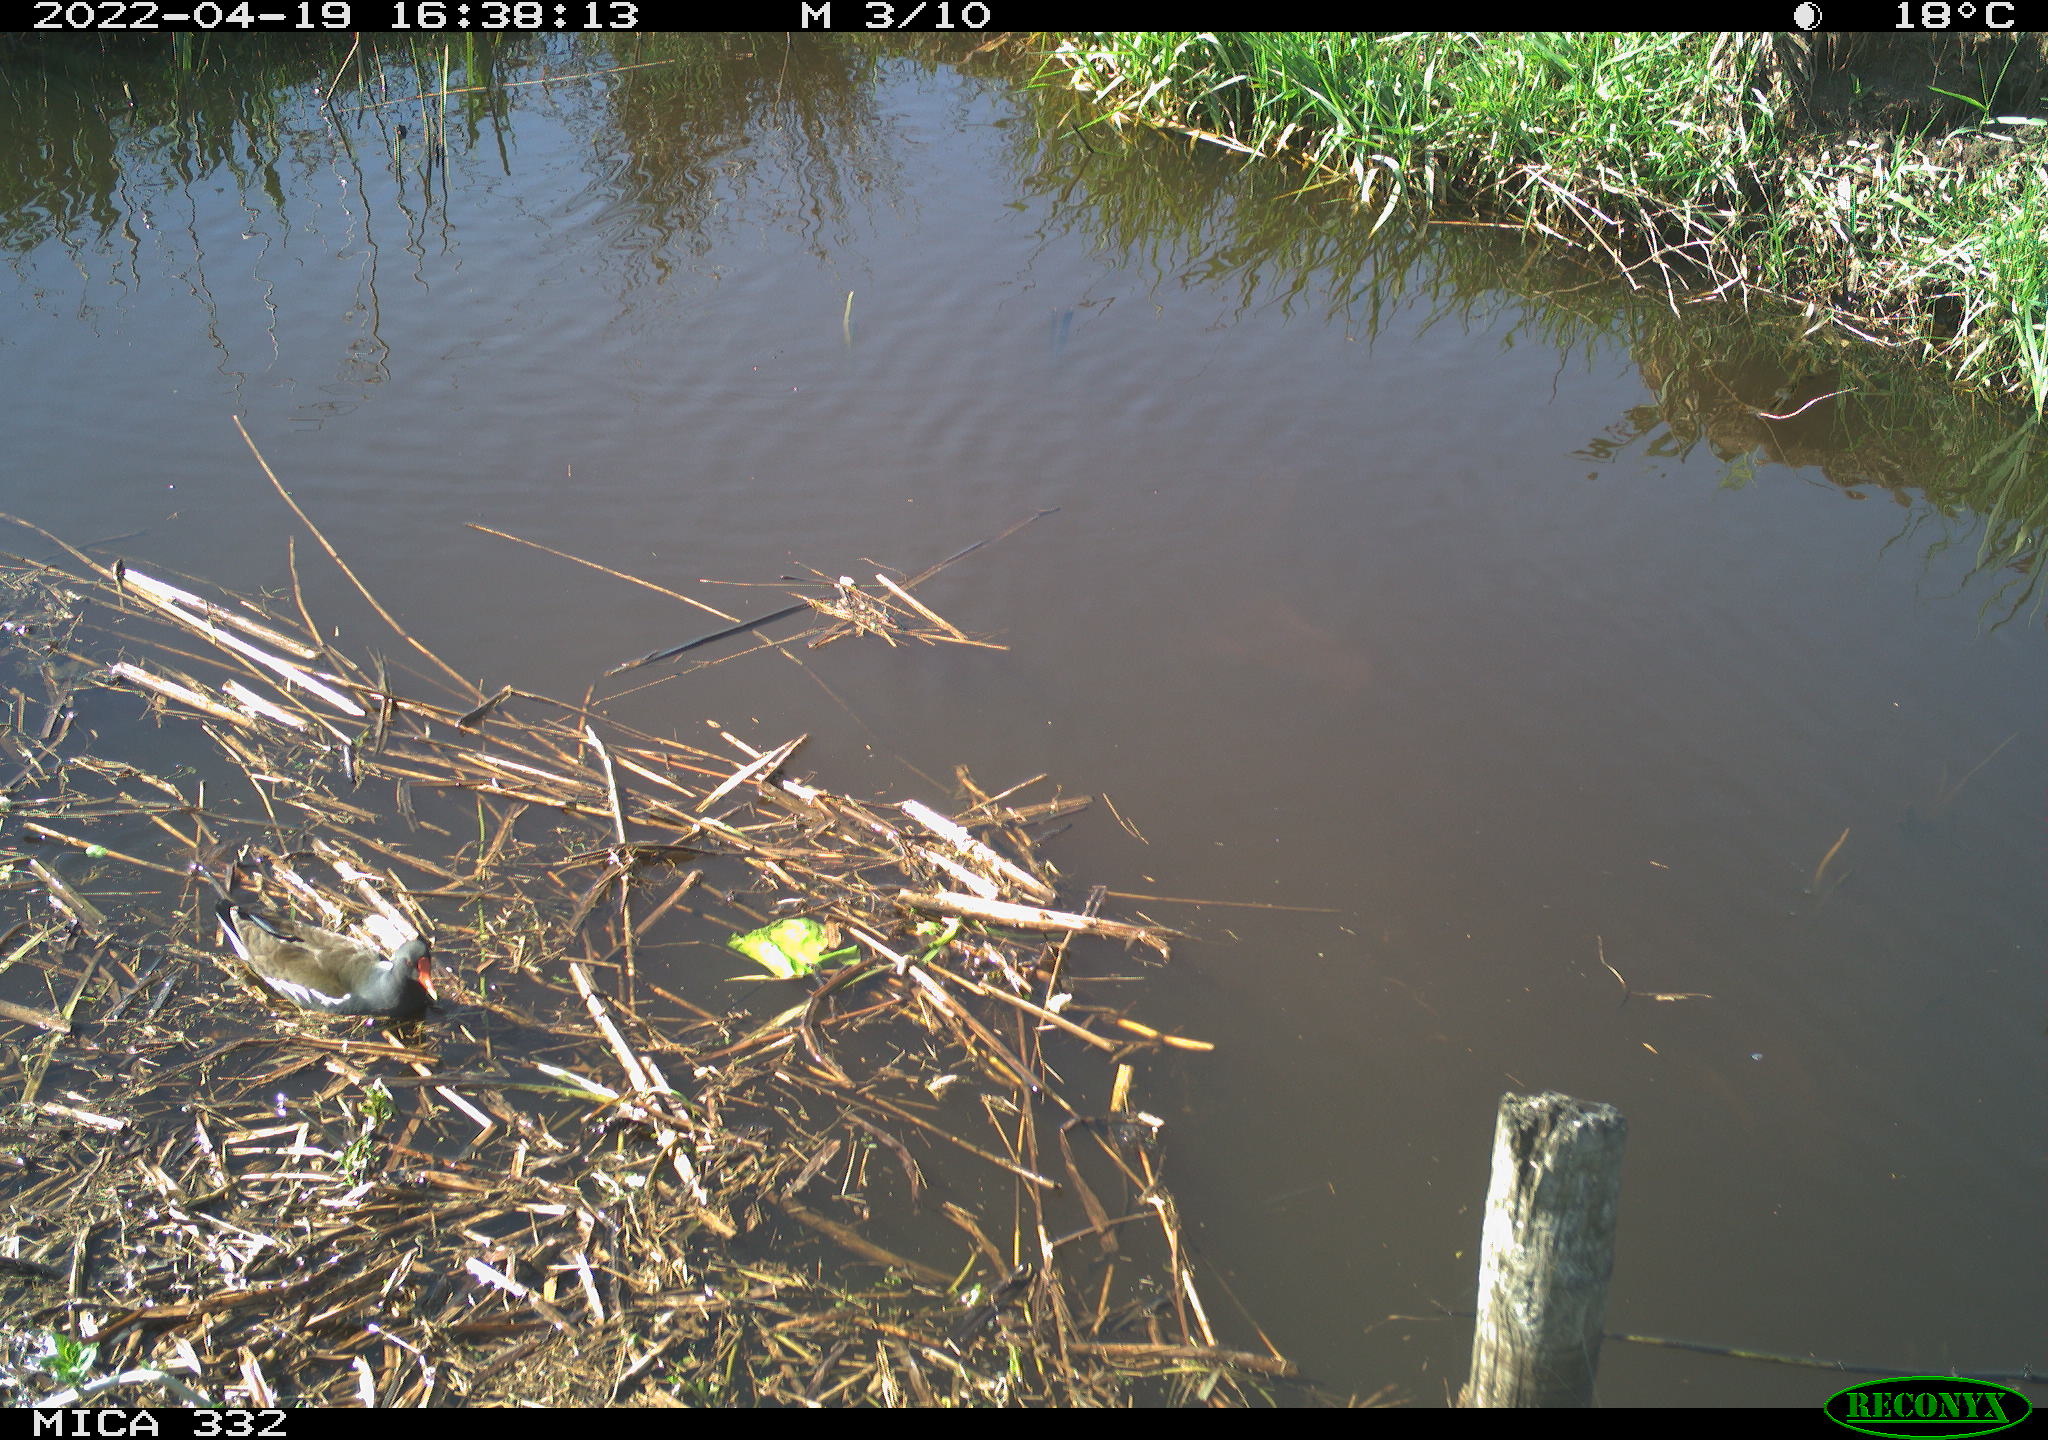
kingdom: Animalia
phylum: Chordata
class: Aves
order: Gruiformes
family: Rallidae
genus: Gallinula
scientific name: Gallinula chloropus
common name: Common moorhen
